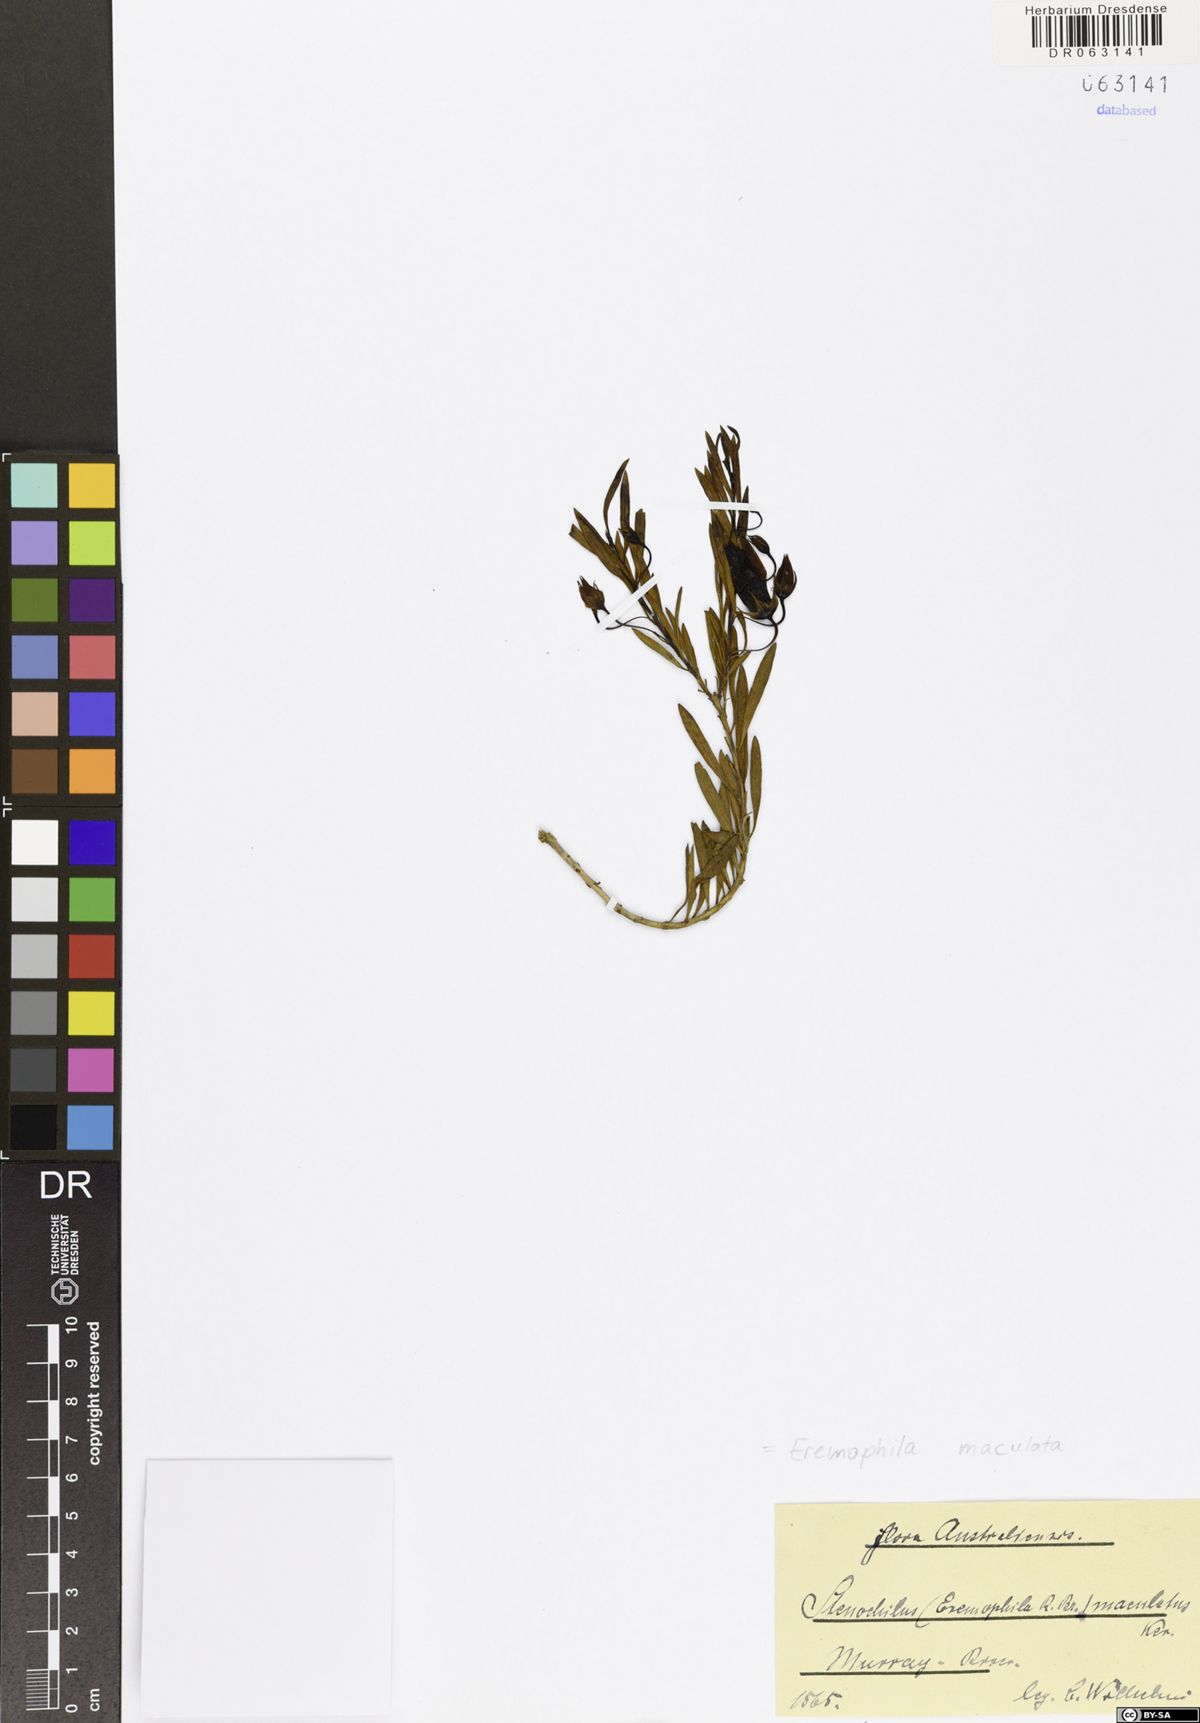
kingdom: Plantae
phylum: Tracheophyta
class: Magnoliopsida
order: Lamiales
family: Scrophulariaceae
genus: Eremophila
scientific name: Eremophila maculata
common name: Fuchsiabush
